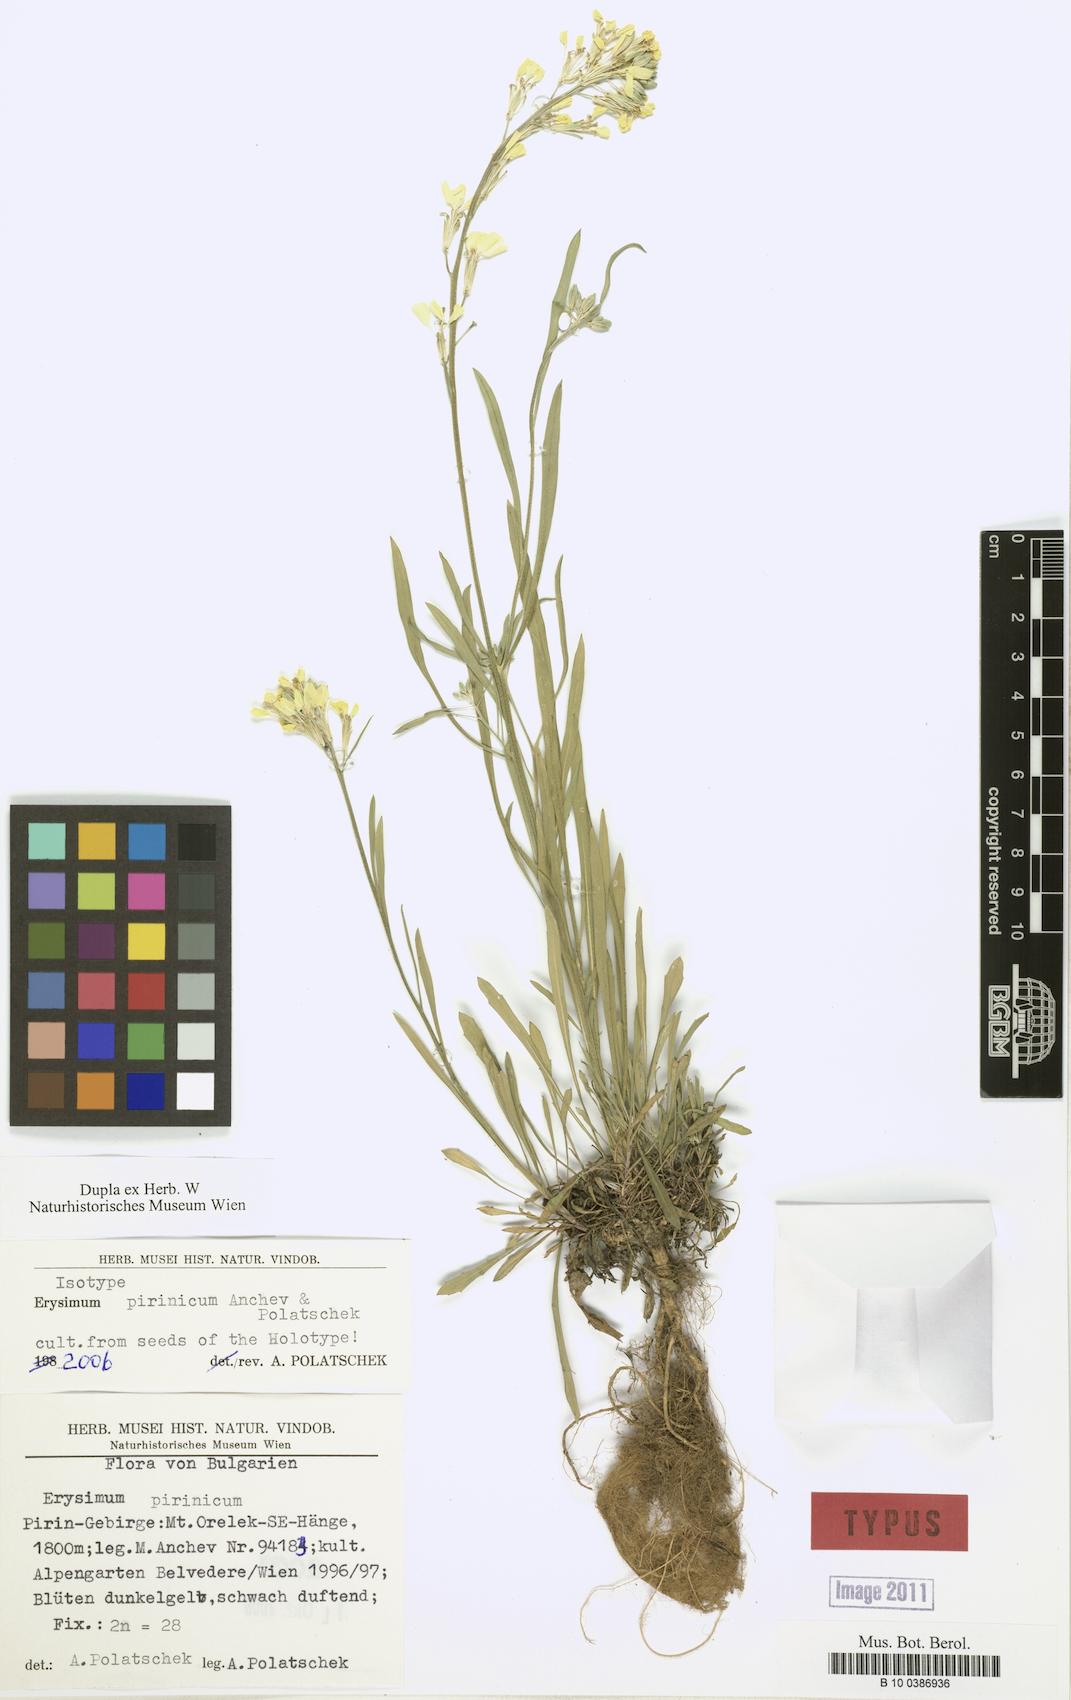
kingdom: Plantae
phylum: Tracheophyta
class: Magnoliopsida
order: Brassicales
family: Brassicaceae
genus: Erysimum
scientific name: Erysimum pirinicum
